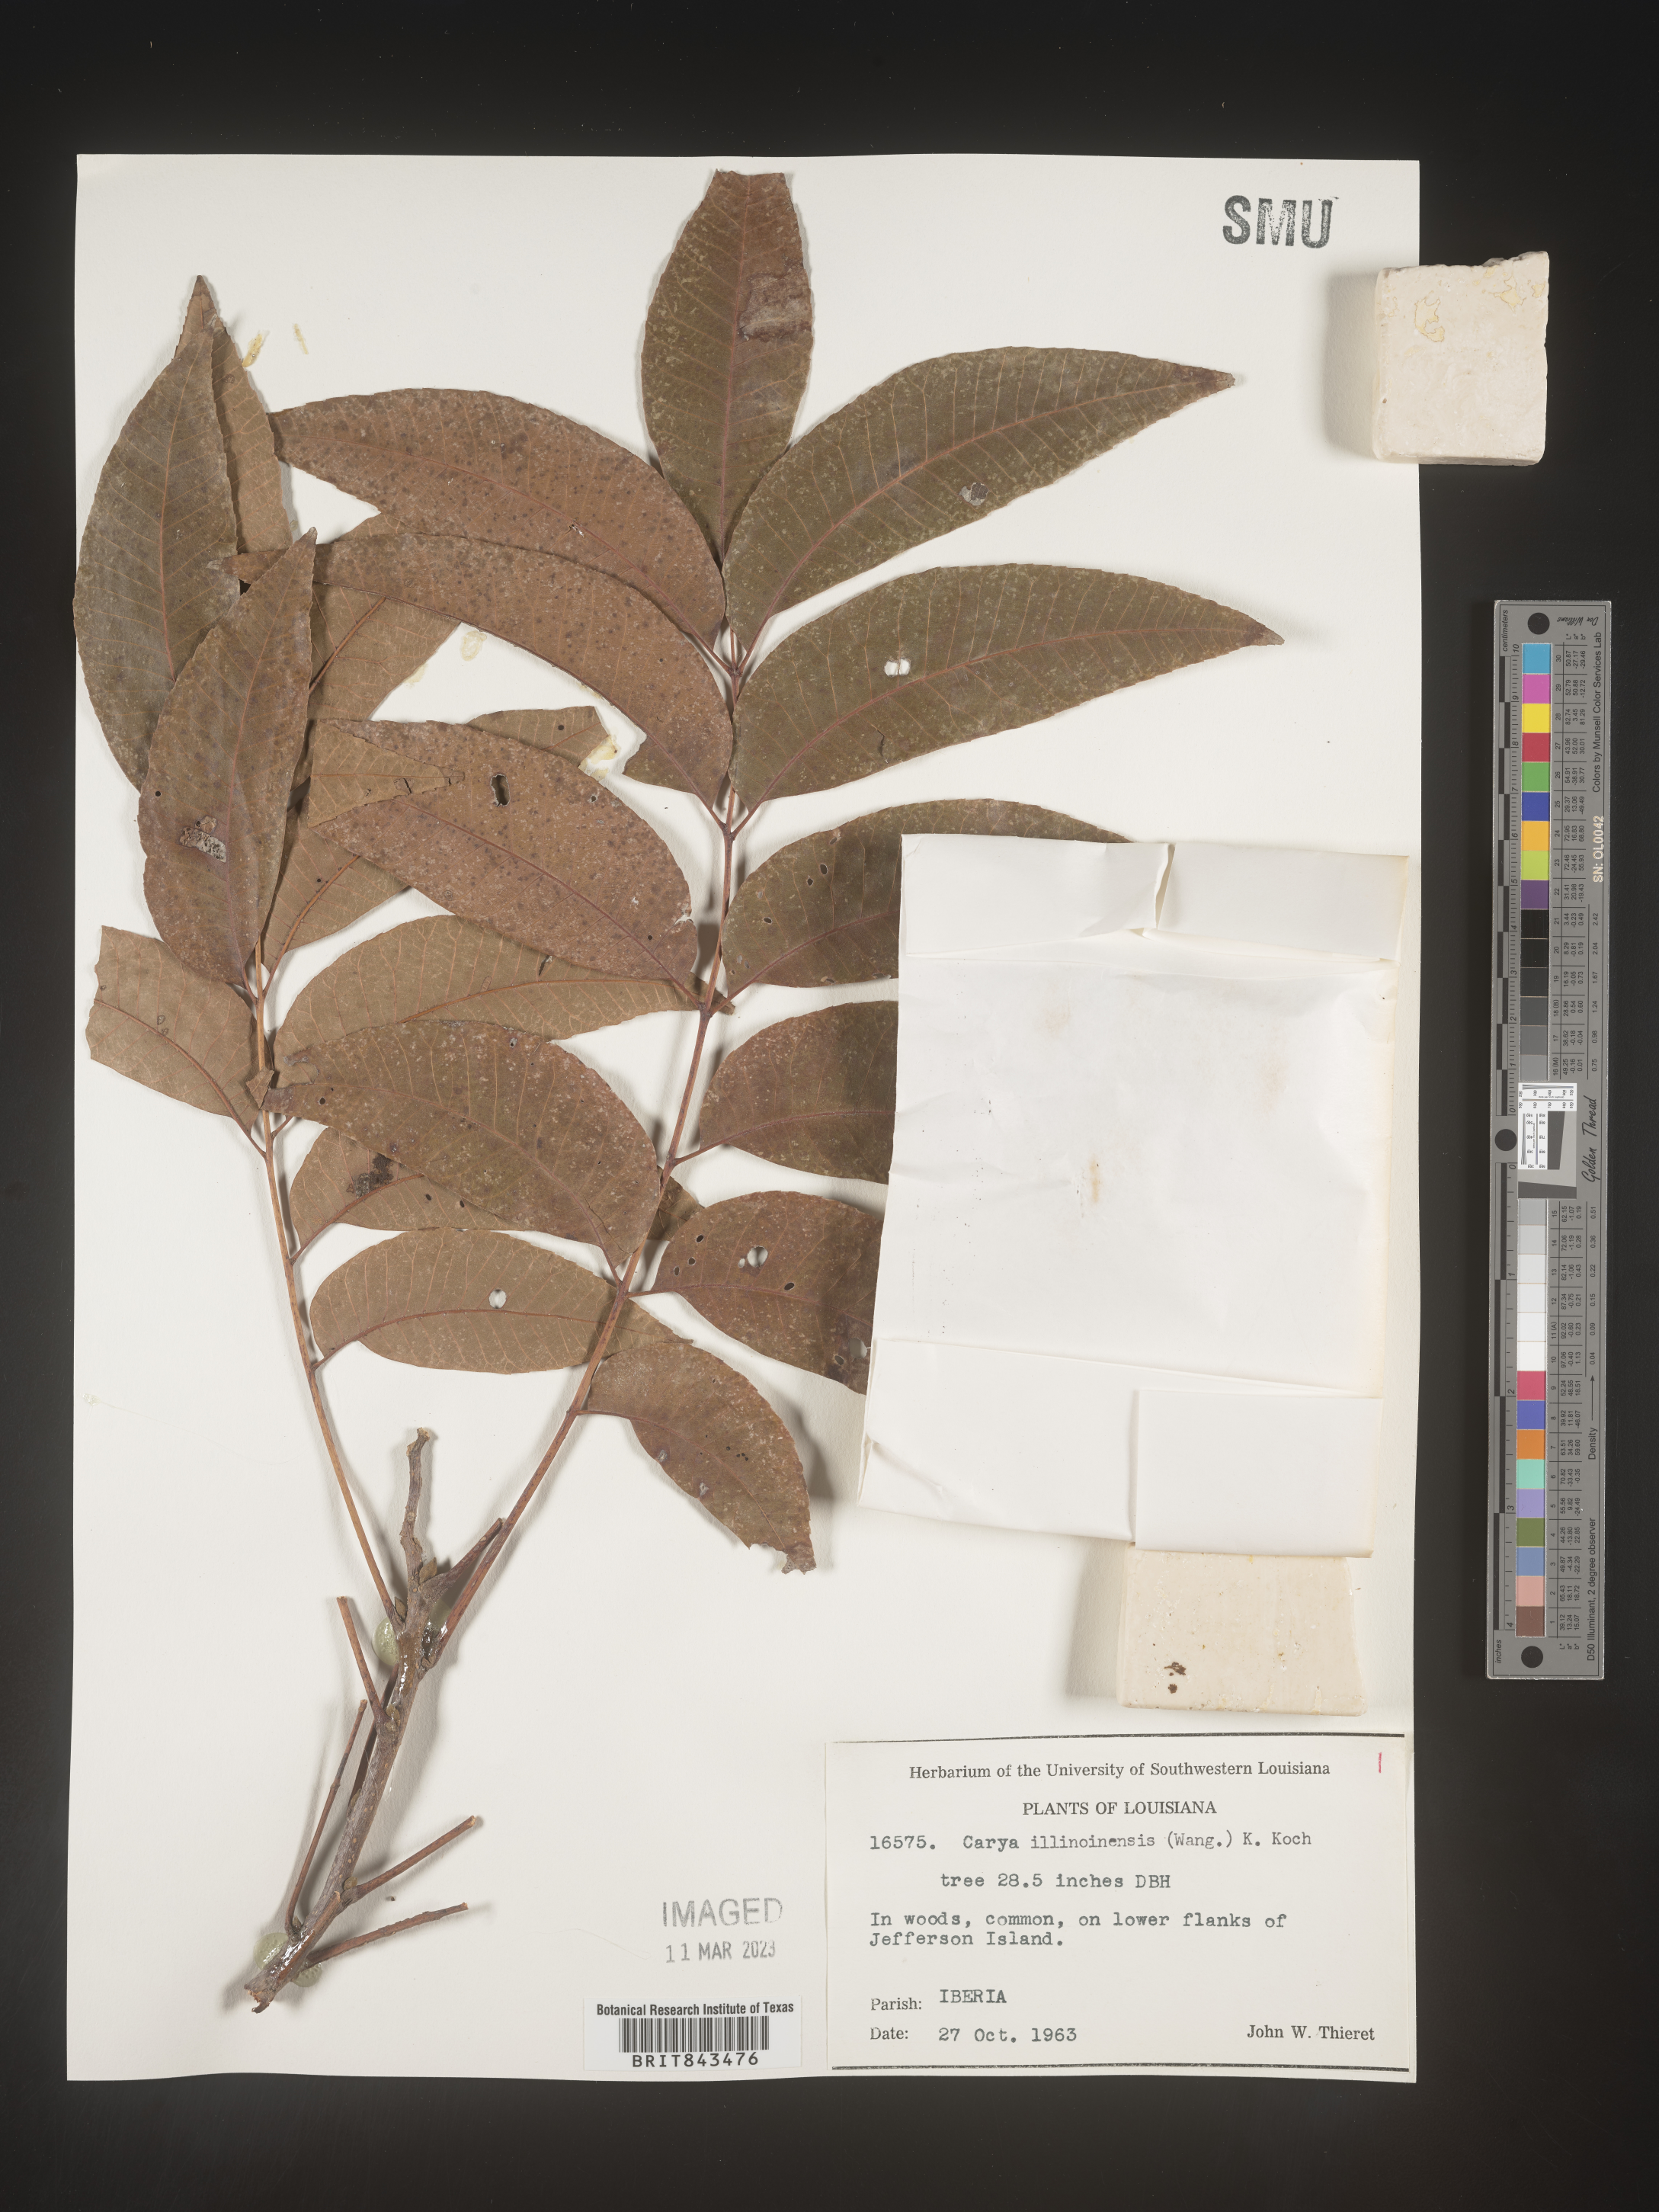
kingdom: Plantae
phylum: Tracheophyta
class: Magnoliopsida
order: Fagales
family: Juglandaceae
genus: Carya
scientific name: Carya illinoinensis
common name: Pecan
